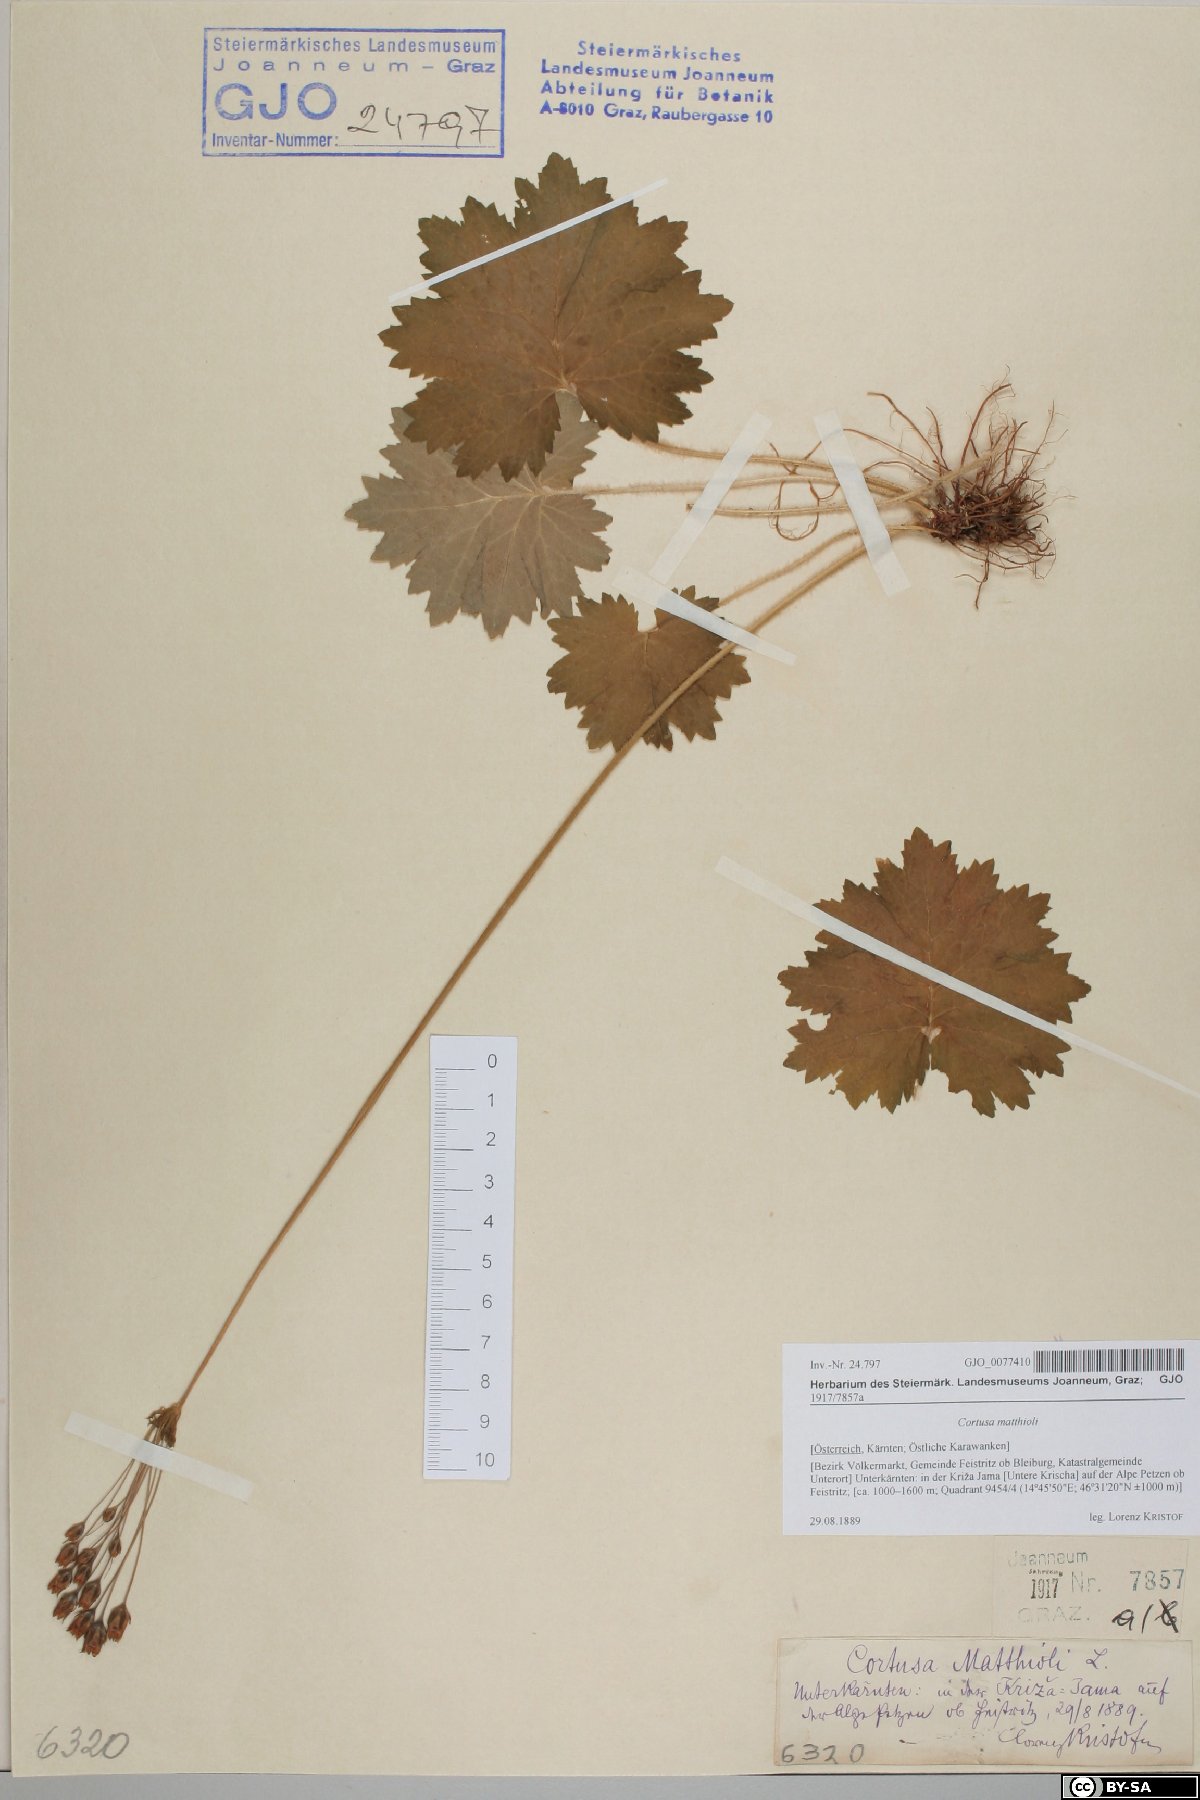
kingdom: Plantae
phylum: Tracheophyta
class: Magnoliopsida
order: Ericales
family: Primulaceae
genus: Primula
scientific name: Primula matthioli
